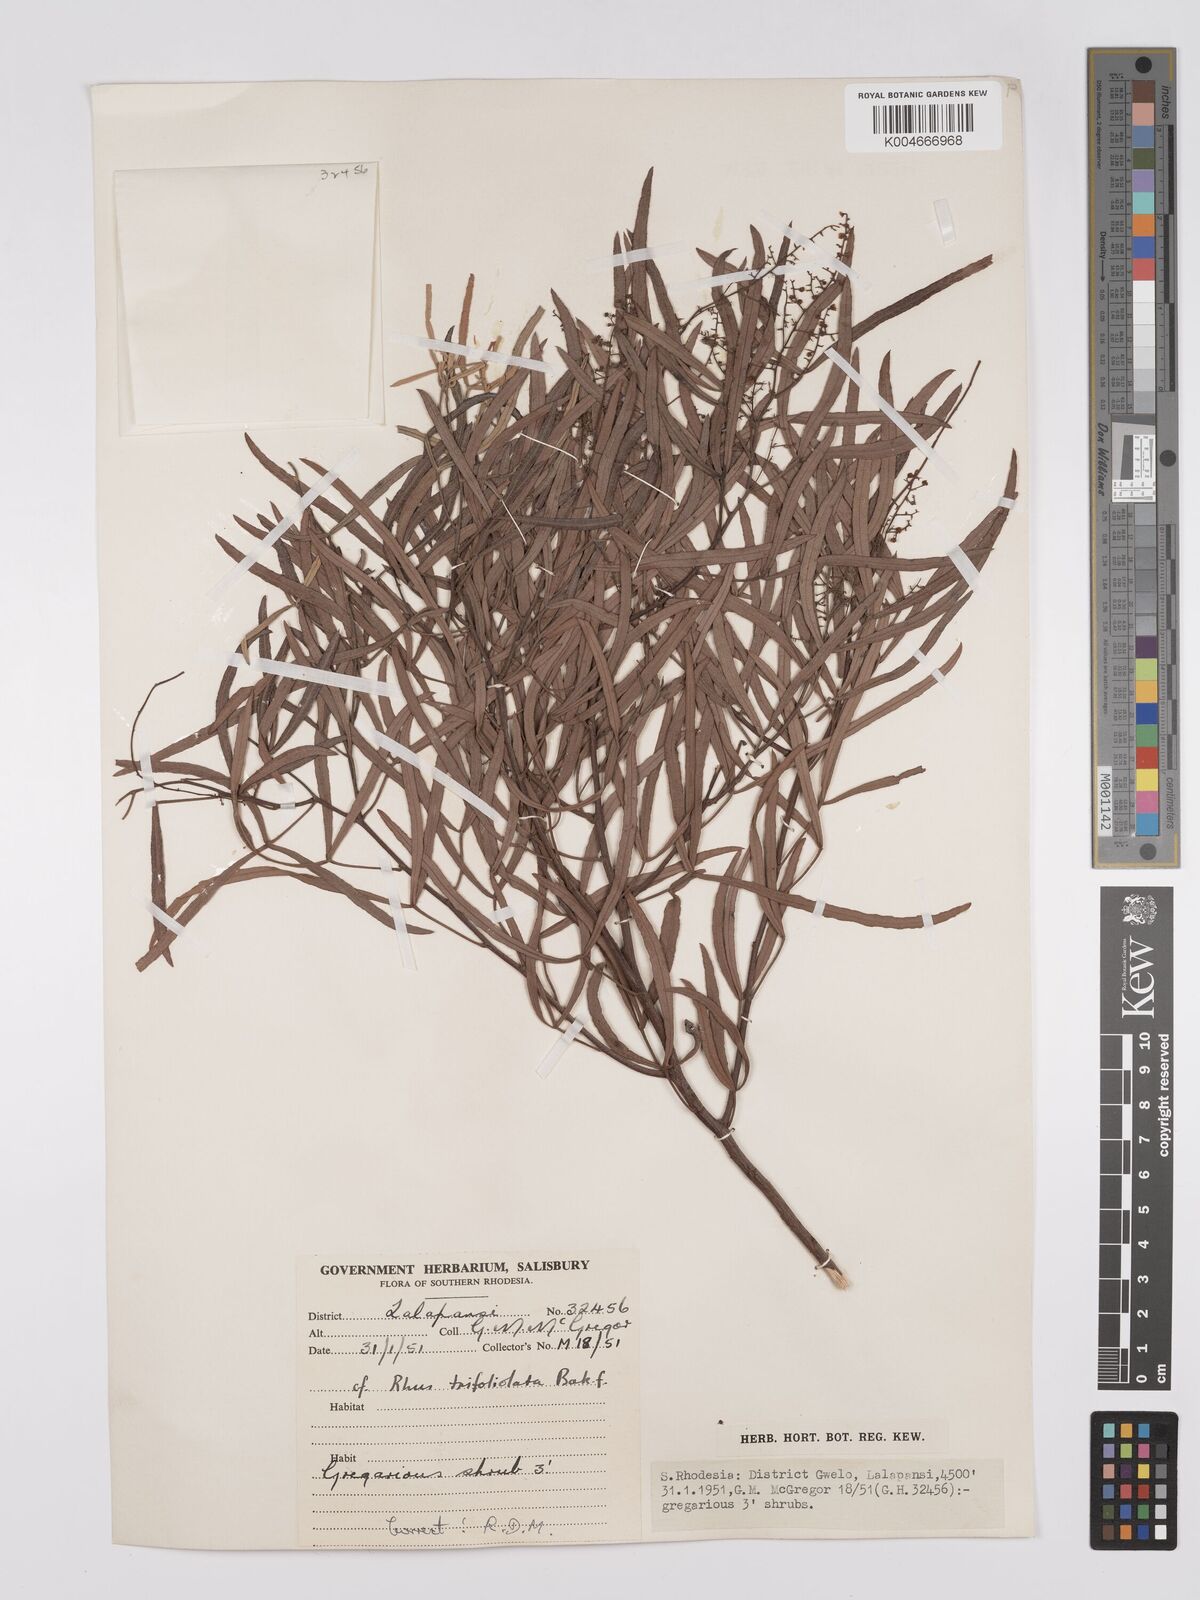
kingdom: Plantae
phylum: Tracheophyta
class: Magnoliopsida
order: Sapindales
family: Anacardiaceae
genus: Searsia
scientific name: Searsia magalismontana
